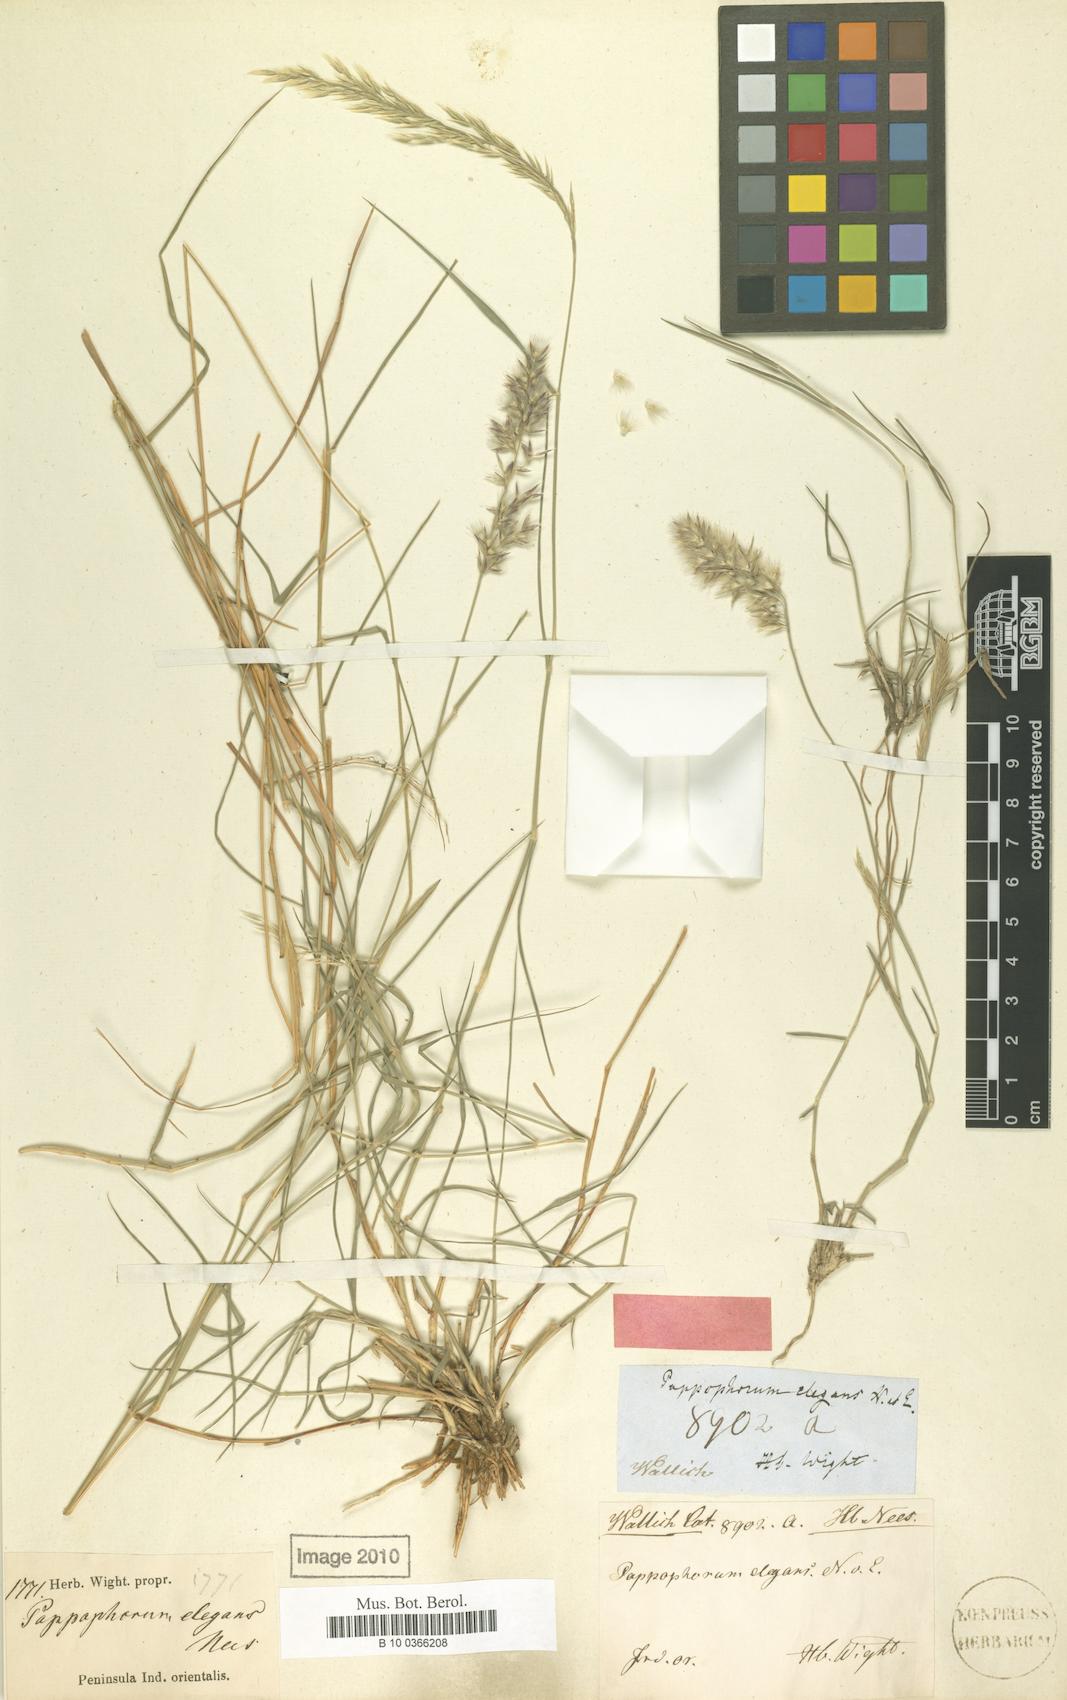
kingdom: Plantae
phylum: Tracheophyta
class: Liliopsida
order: Poales
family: Poaceae
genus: Enneapogon
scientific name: Enneapogon persicus
